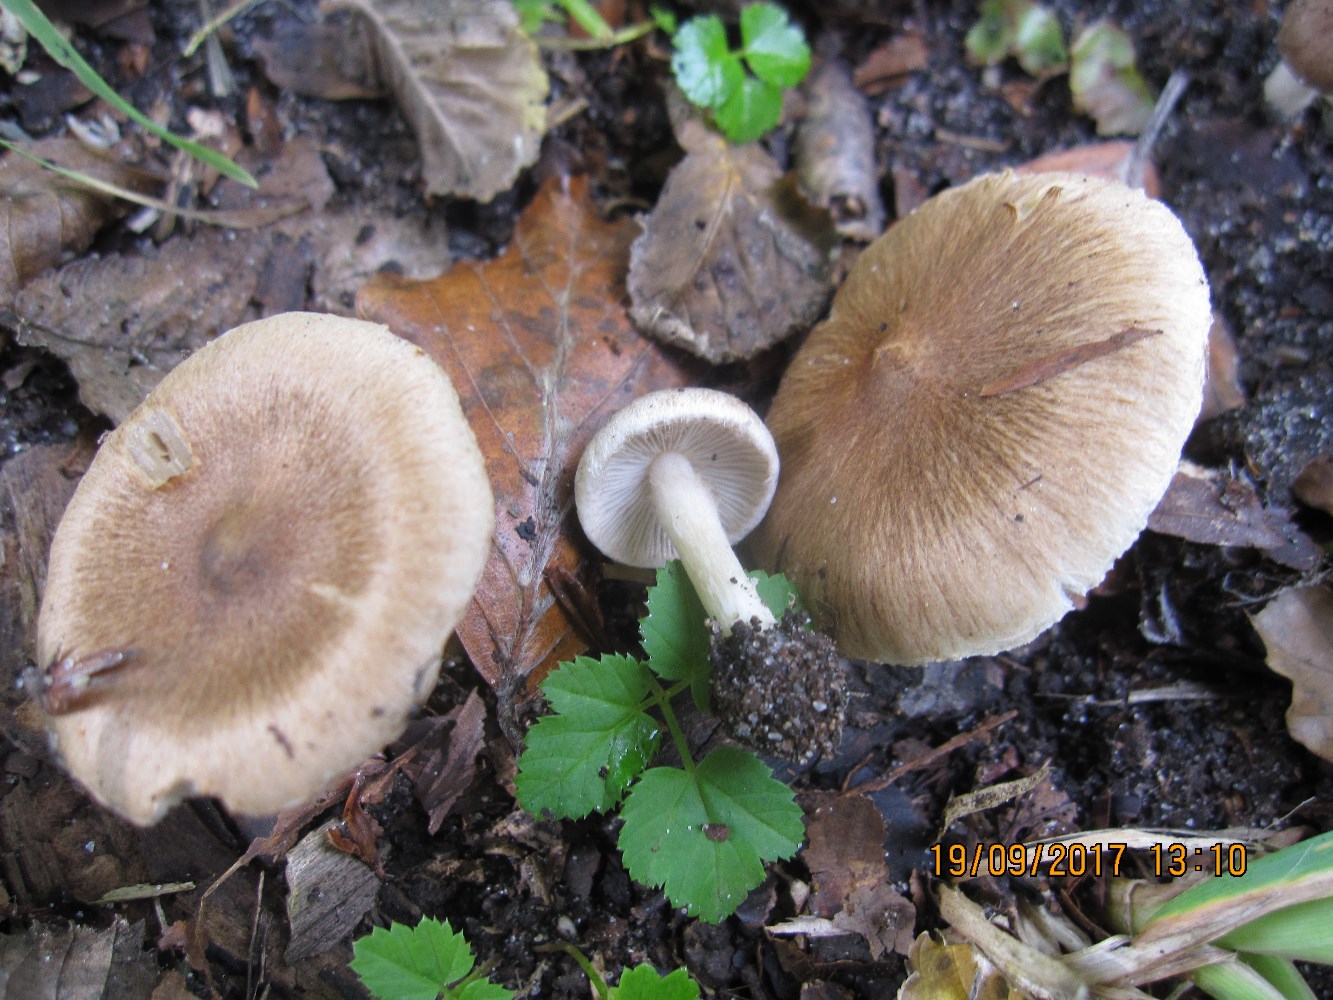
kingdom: Fungi
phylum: Basidiomycota
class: Agaricomycetes
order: Agaricales
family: Inocybaceae
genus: Inocybe
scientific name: Inocybe
